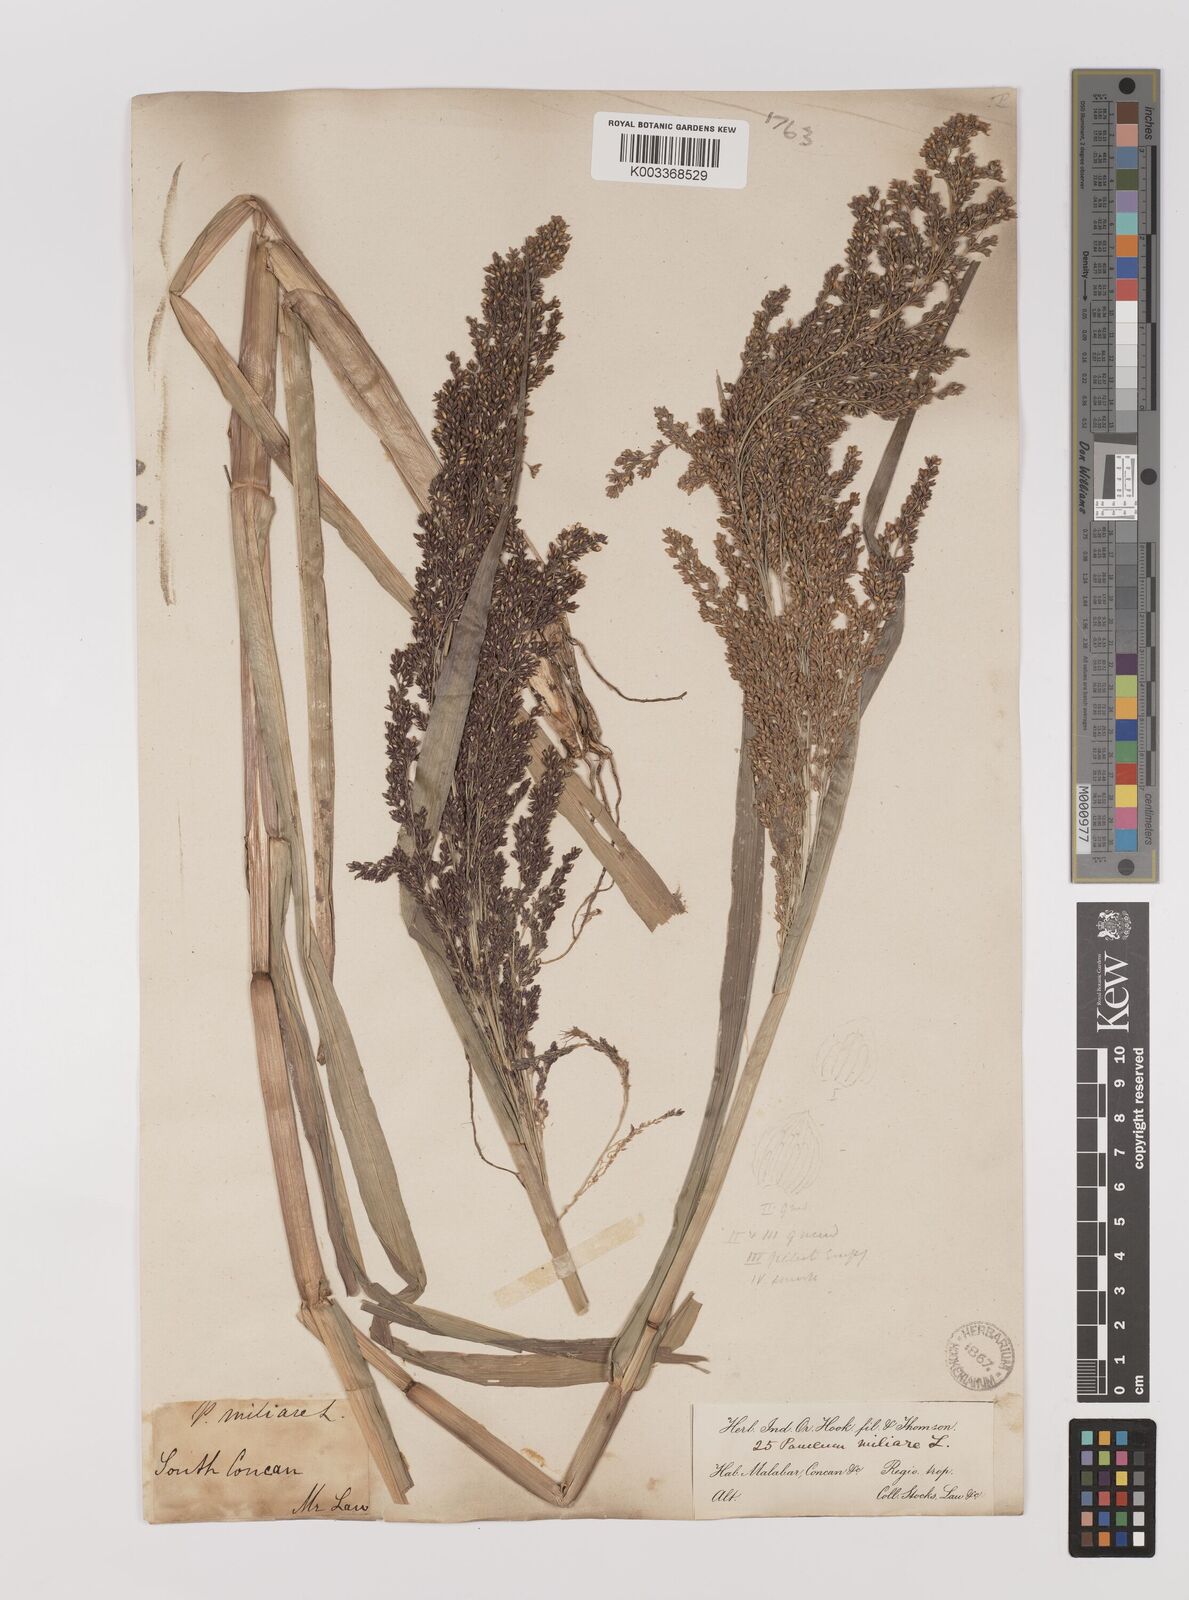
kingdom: Plantae
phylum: Tracheophyta
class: Liliopsida
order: Poales
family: Poaceae
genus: Panicum
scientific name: Panicum sumatrense
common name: Little millet
